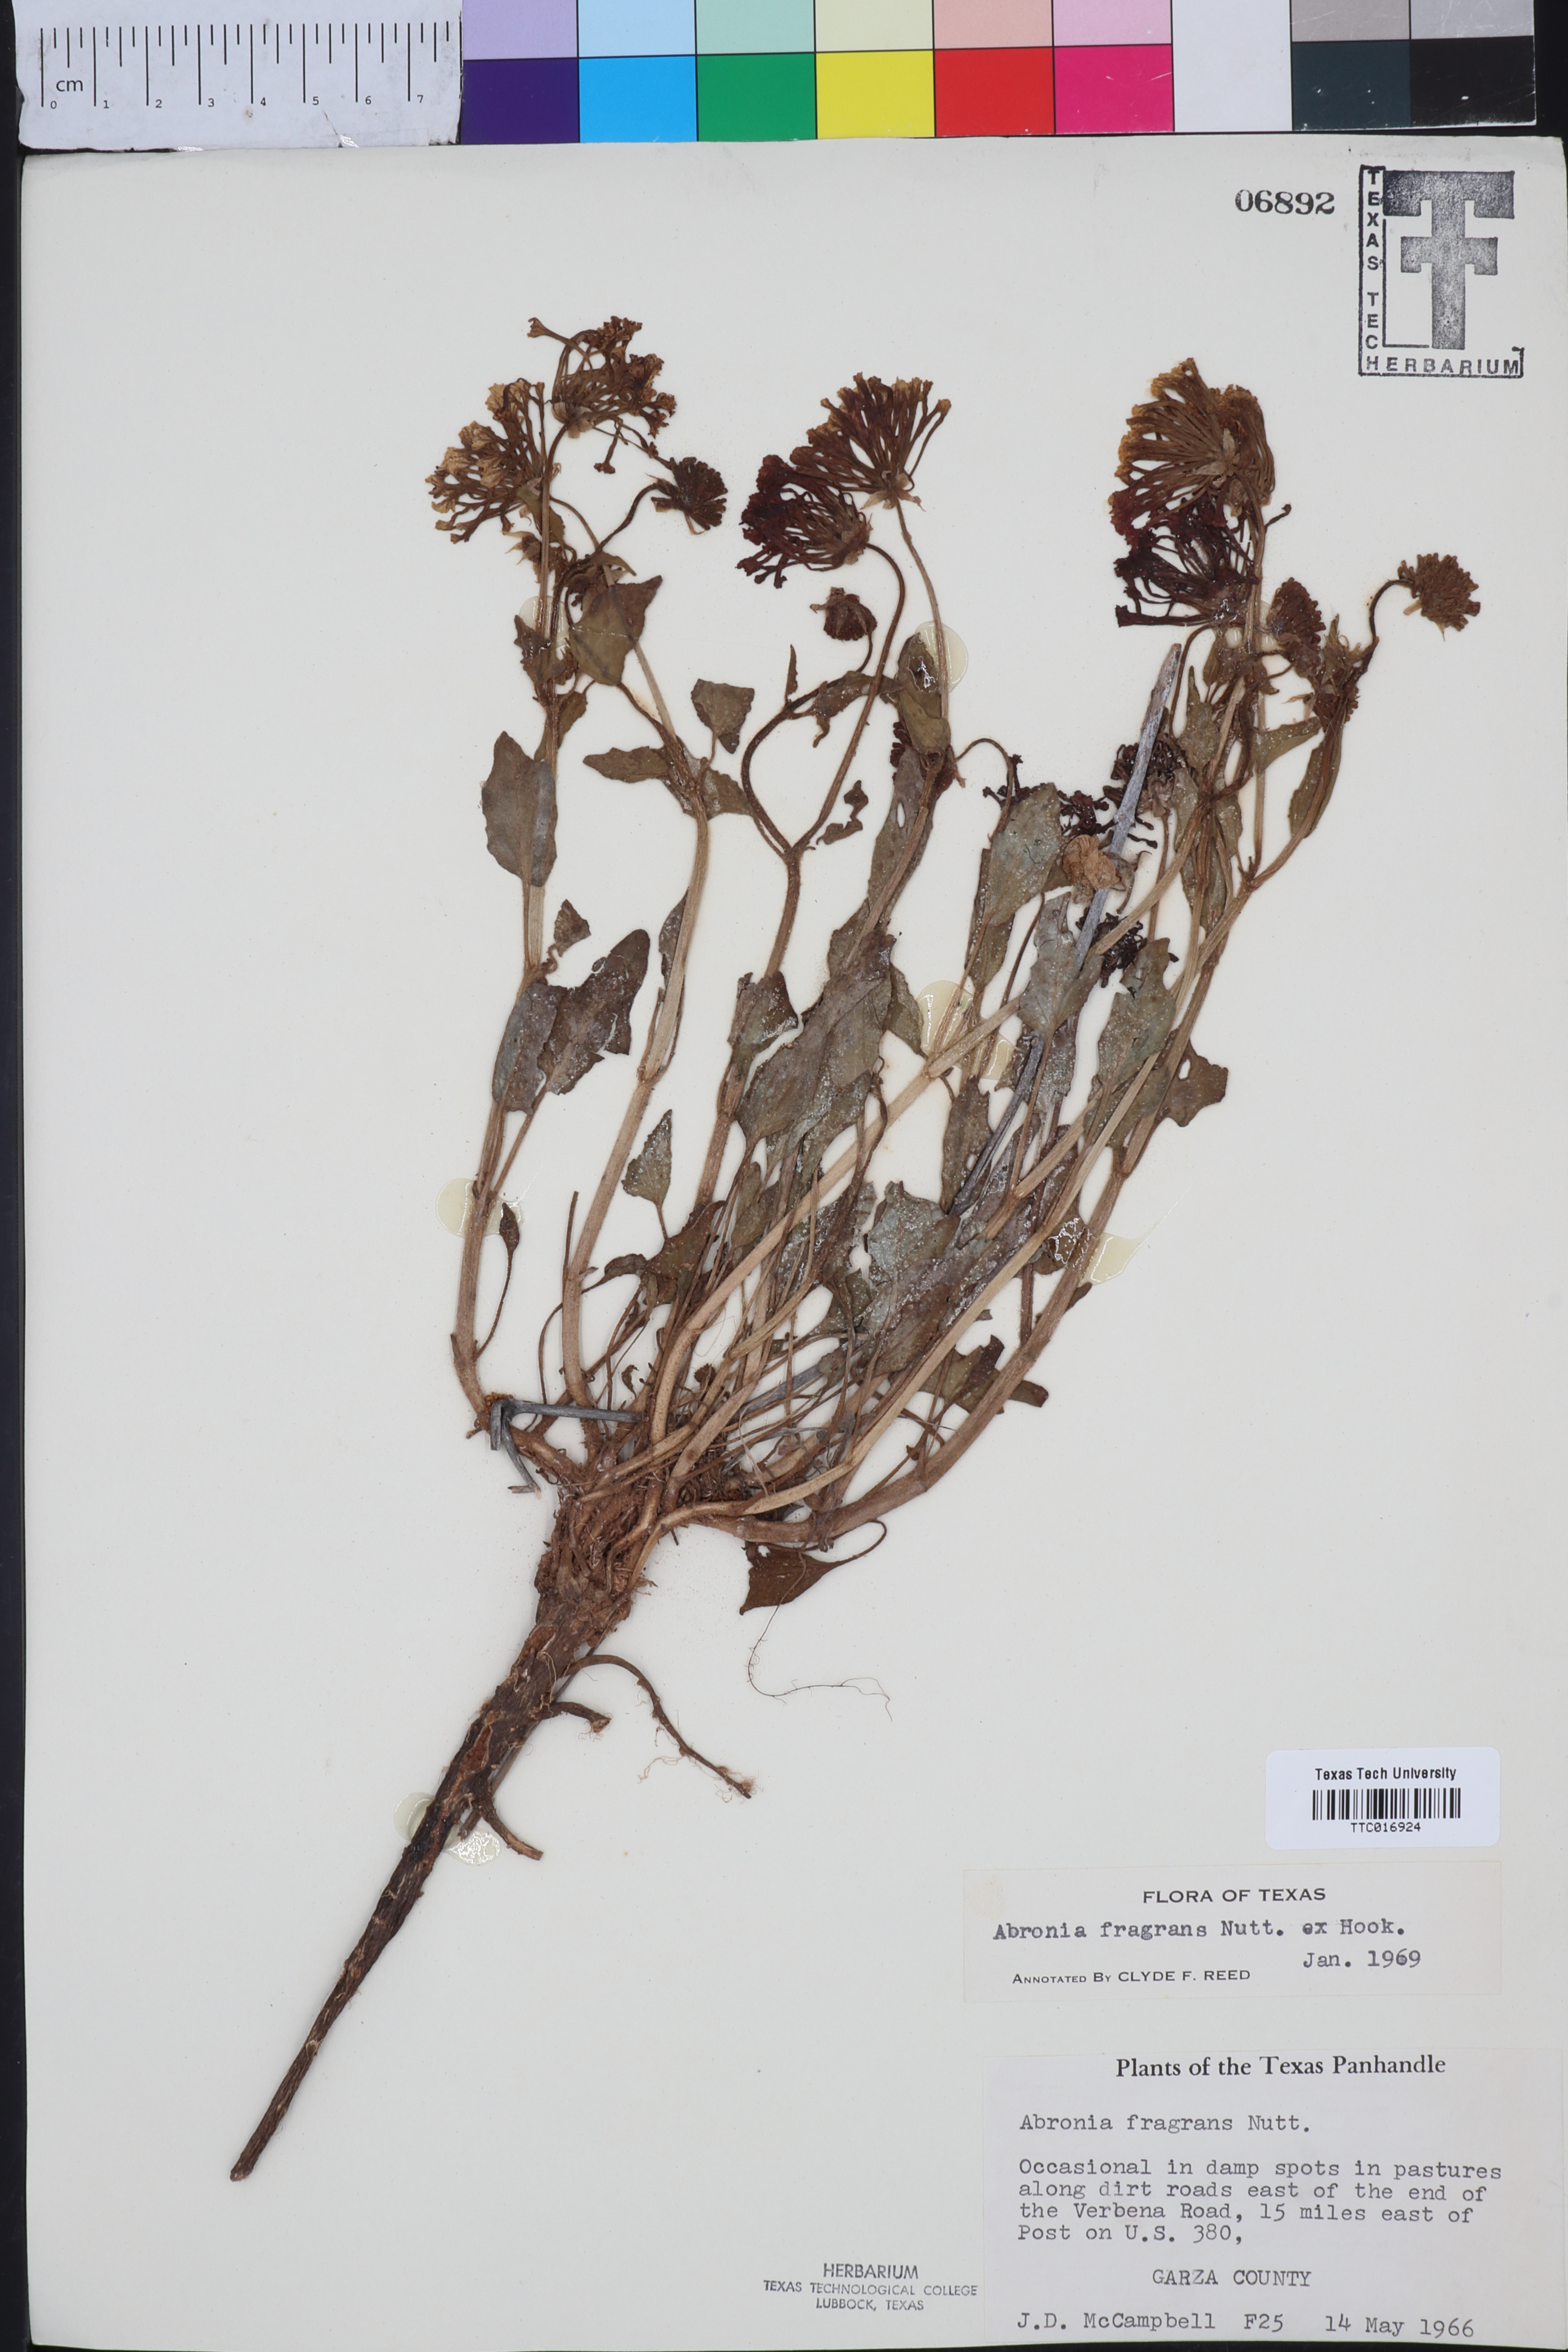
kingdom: Plantae
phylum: Tracheophyta
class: Magnoliopsida
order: Caryophyllales
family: Nyctaginaceae
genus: Abronia
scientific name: Abronia fragrans
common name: Fragrant sand-verbena
